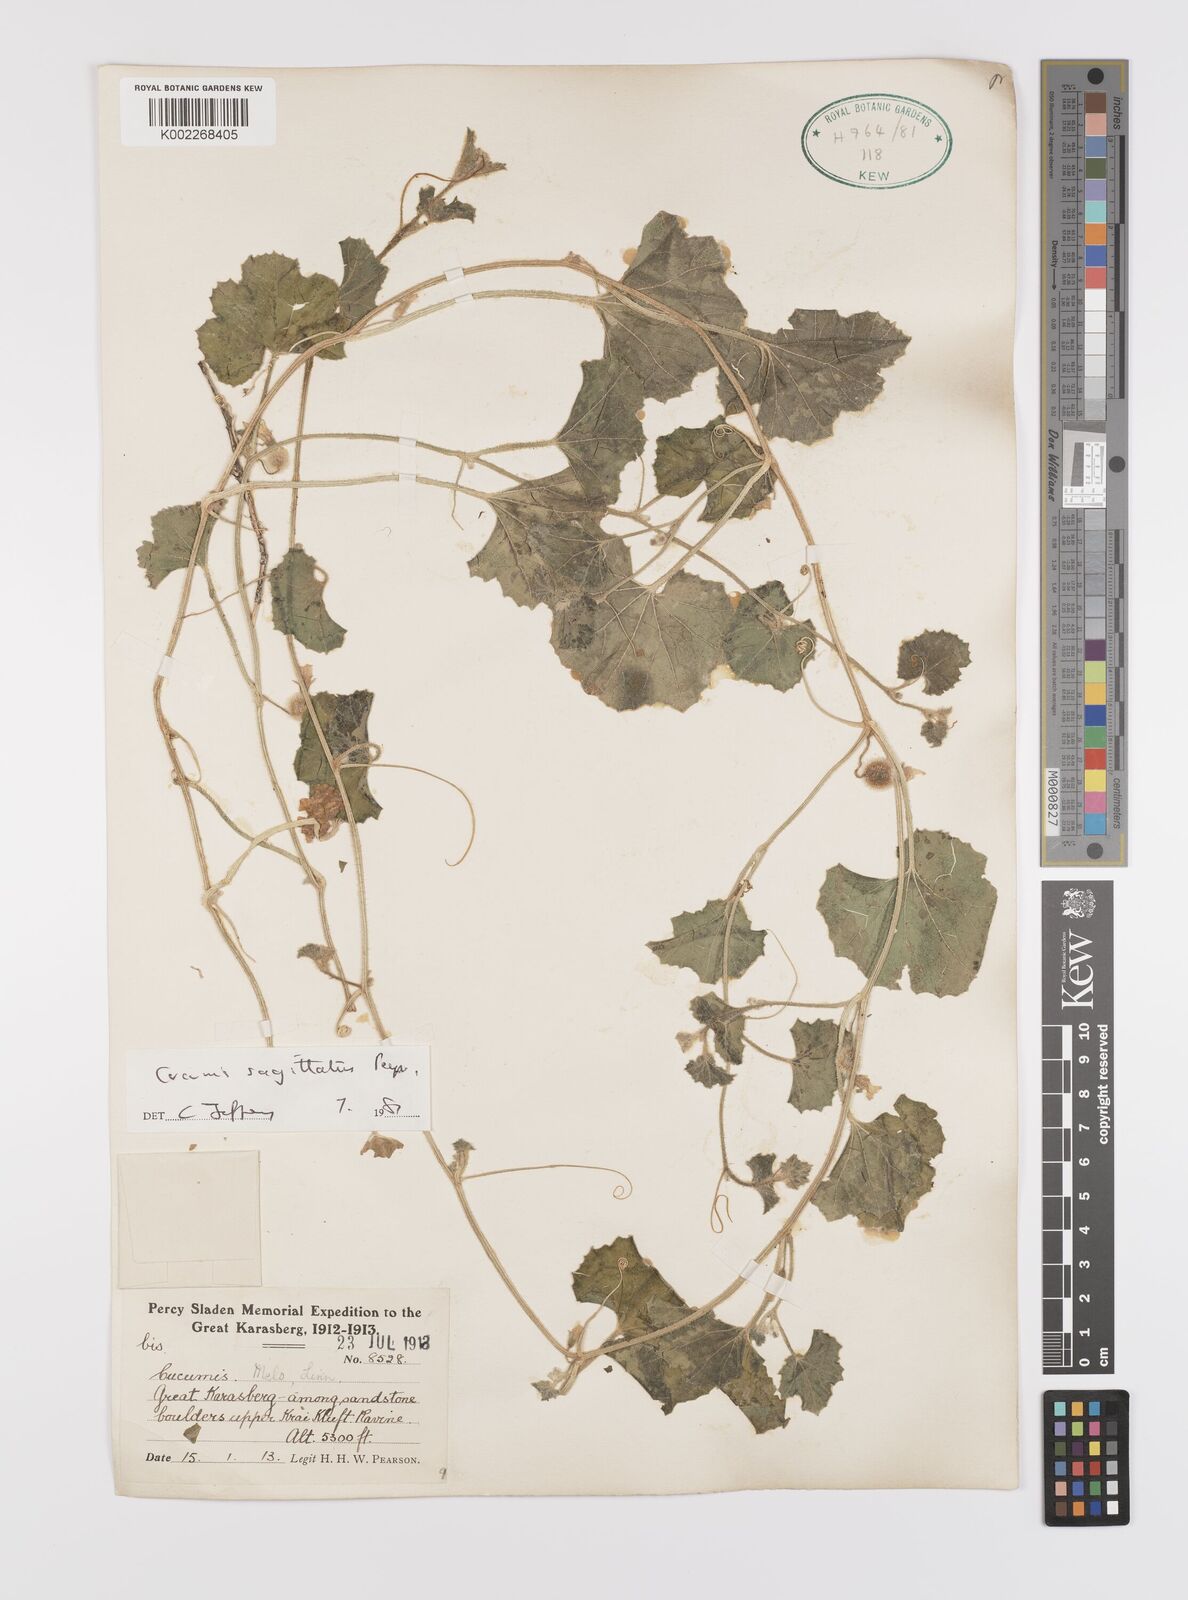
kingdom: Plantae
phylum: Tracheophyta
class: Magnoliopsida
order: Cucurbitales
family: Cucurbitaceae
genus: Cucumis
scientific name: Cucumis sagittatus
